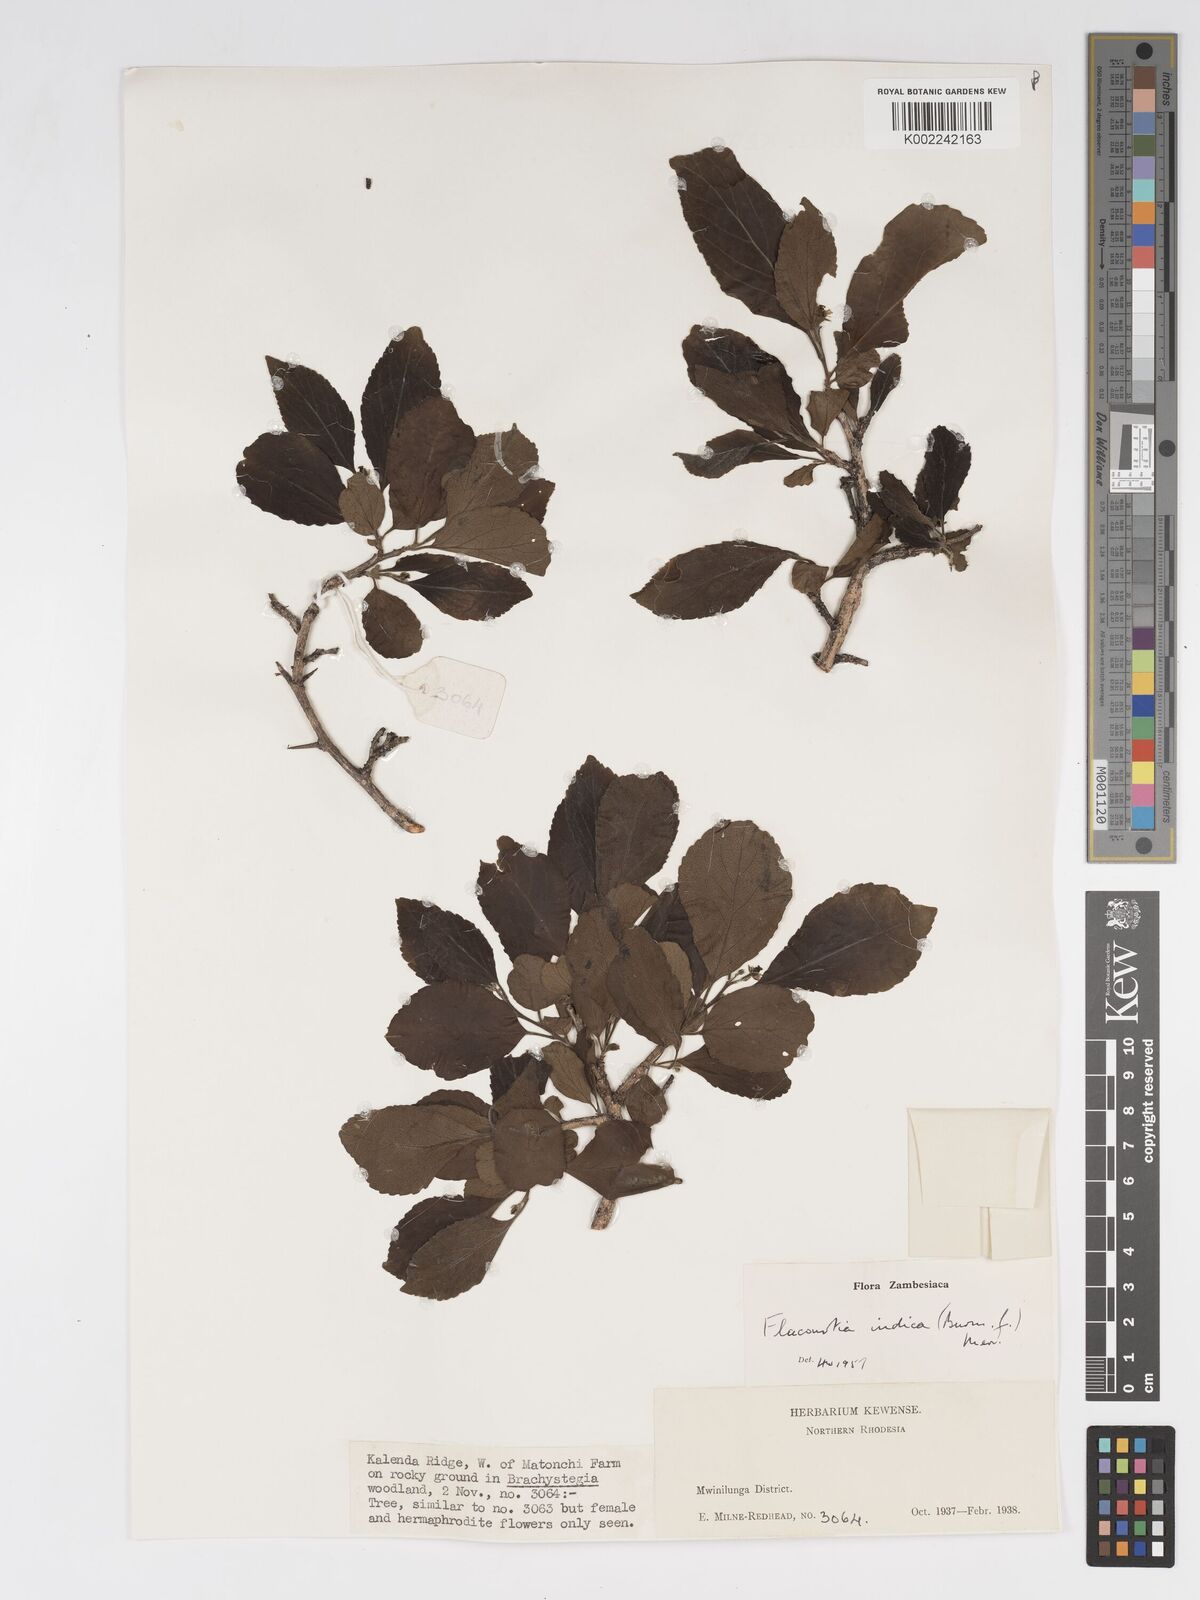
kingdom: Plantae
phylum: Tracheophyta
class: Magnoliopsida
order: Malpighiales
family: Salicaceae
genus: Flacourtia
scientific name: Flacourtia indica
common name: Governor's plum
